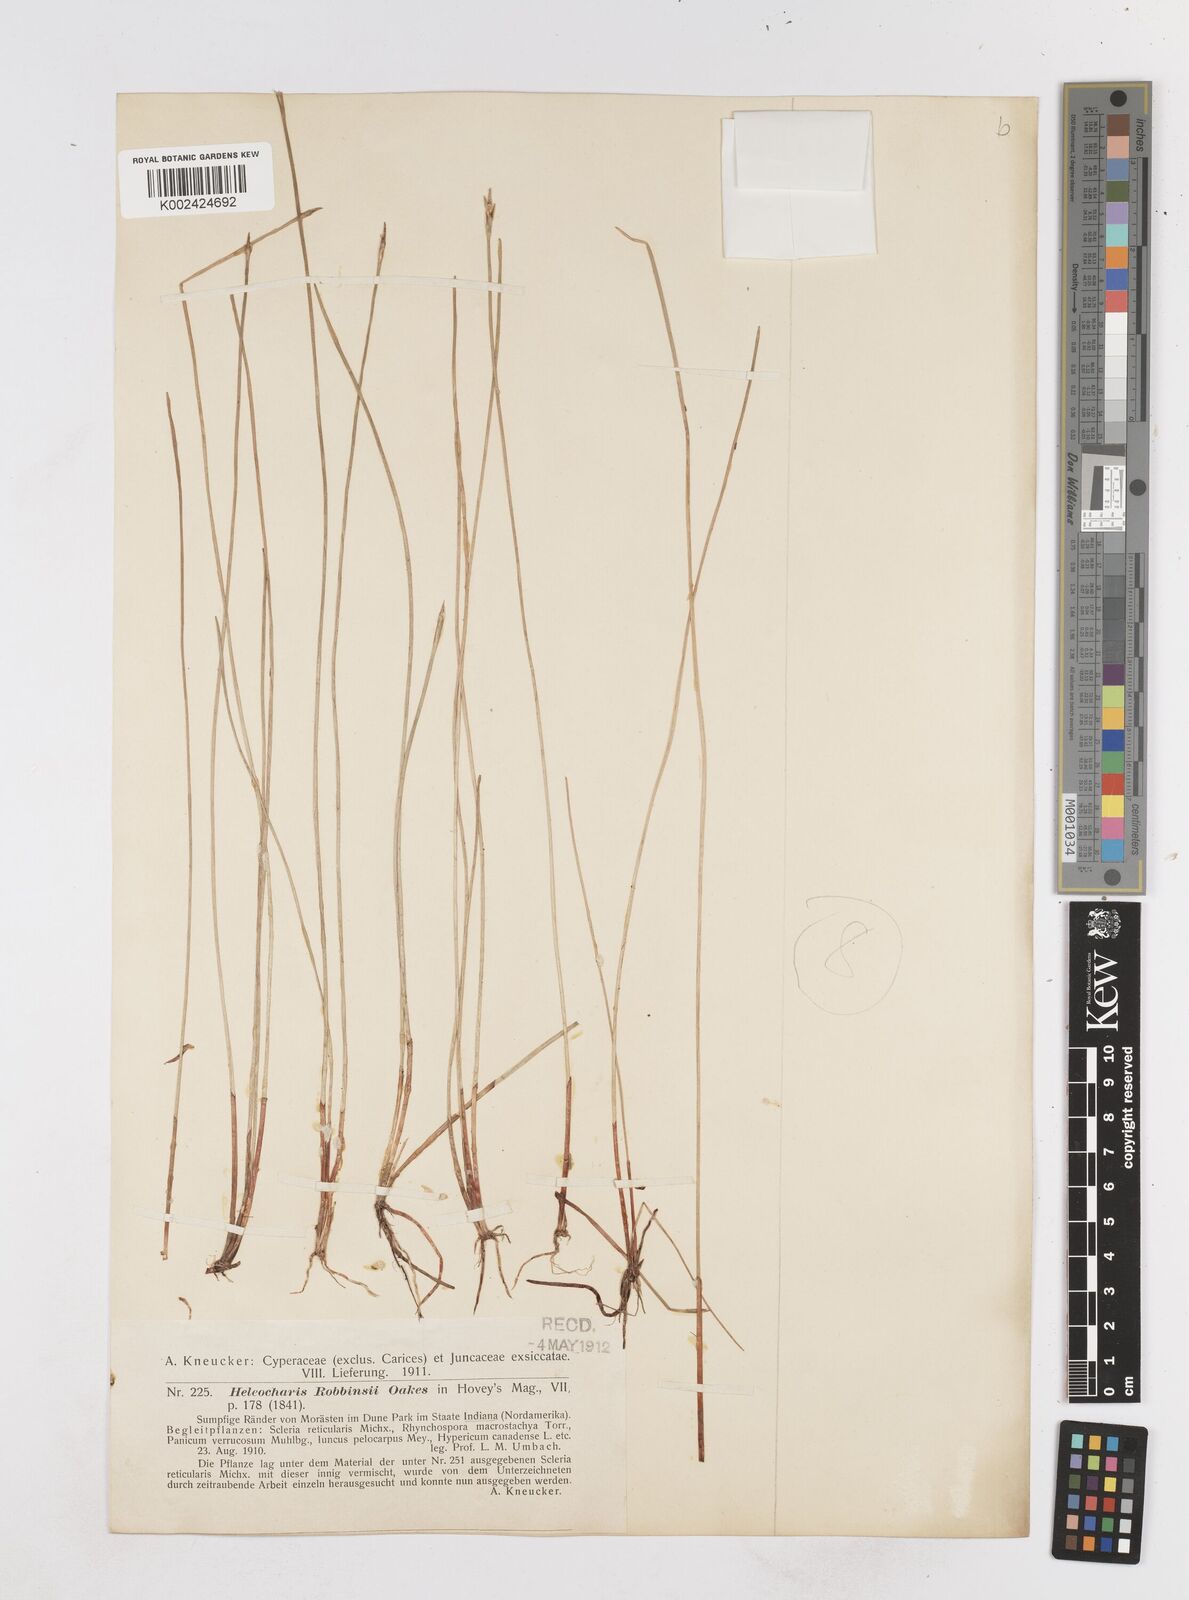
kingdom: Plantae
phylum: Tracheophyta
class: Liliopsida
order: Poales
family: Cyperaceae
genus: Eleocharis
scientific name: Eleocharis robbinsii
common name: Robbins' spikerush
